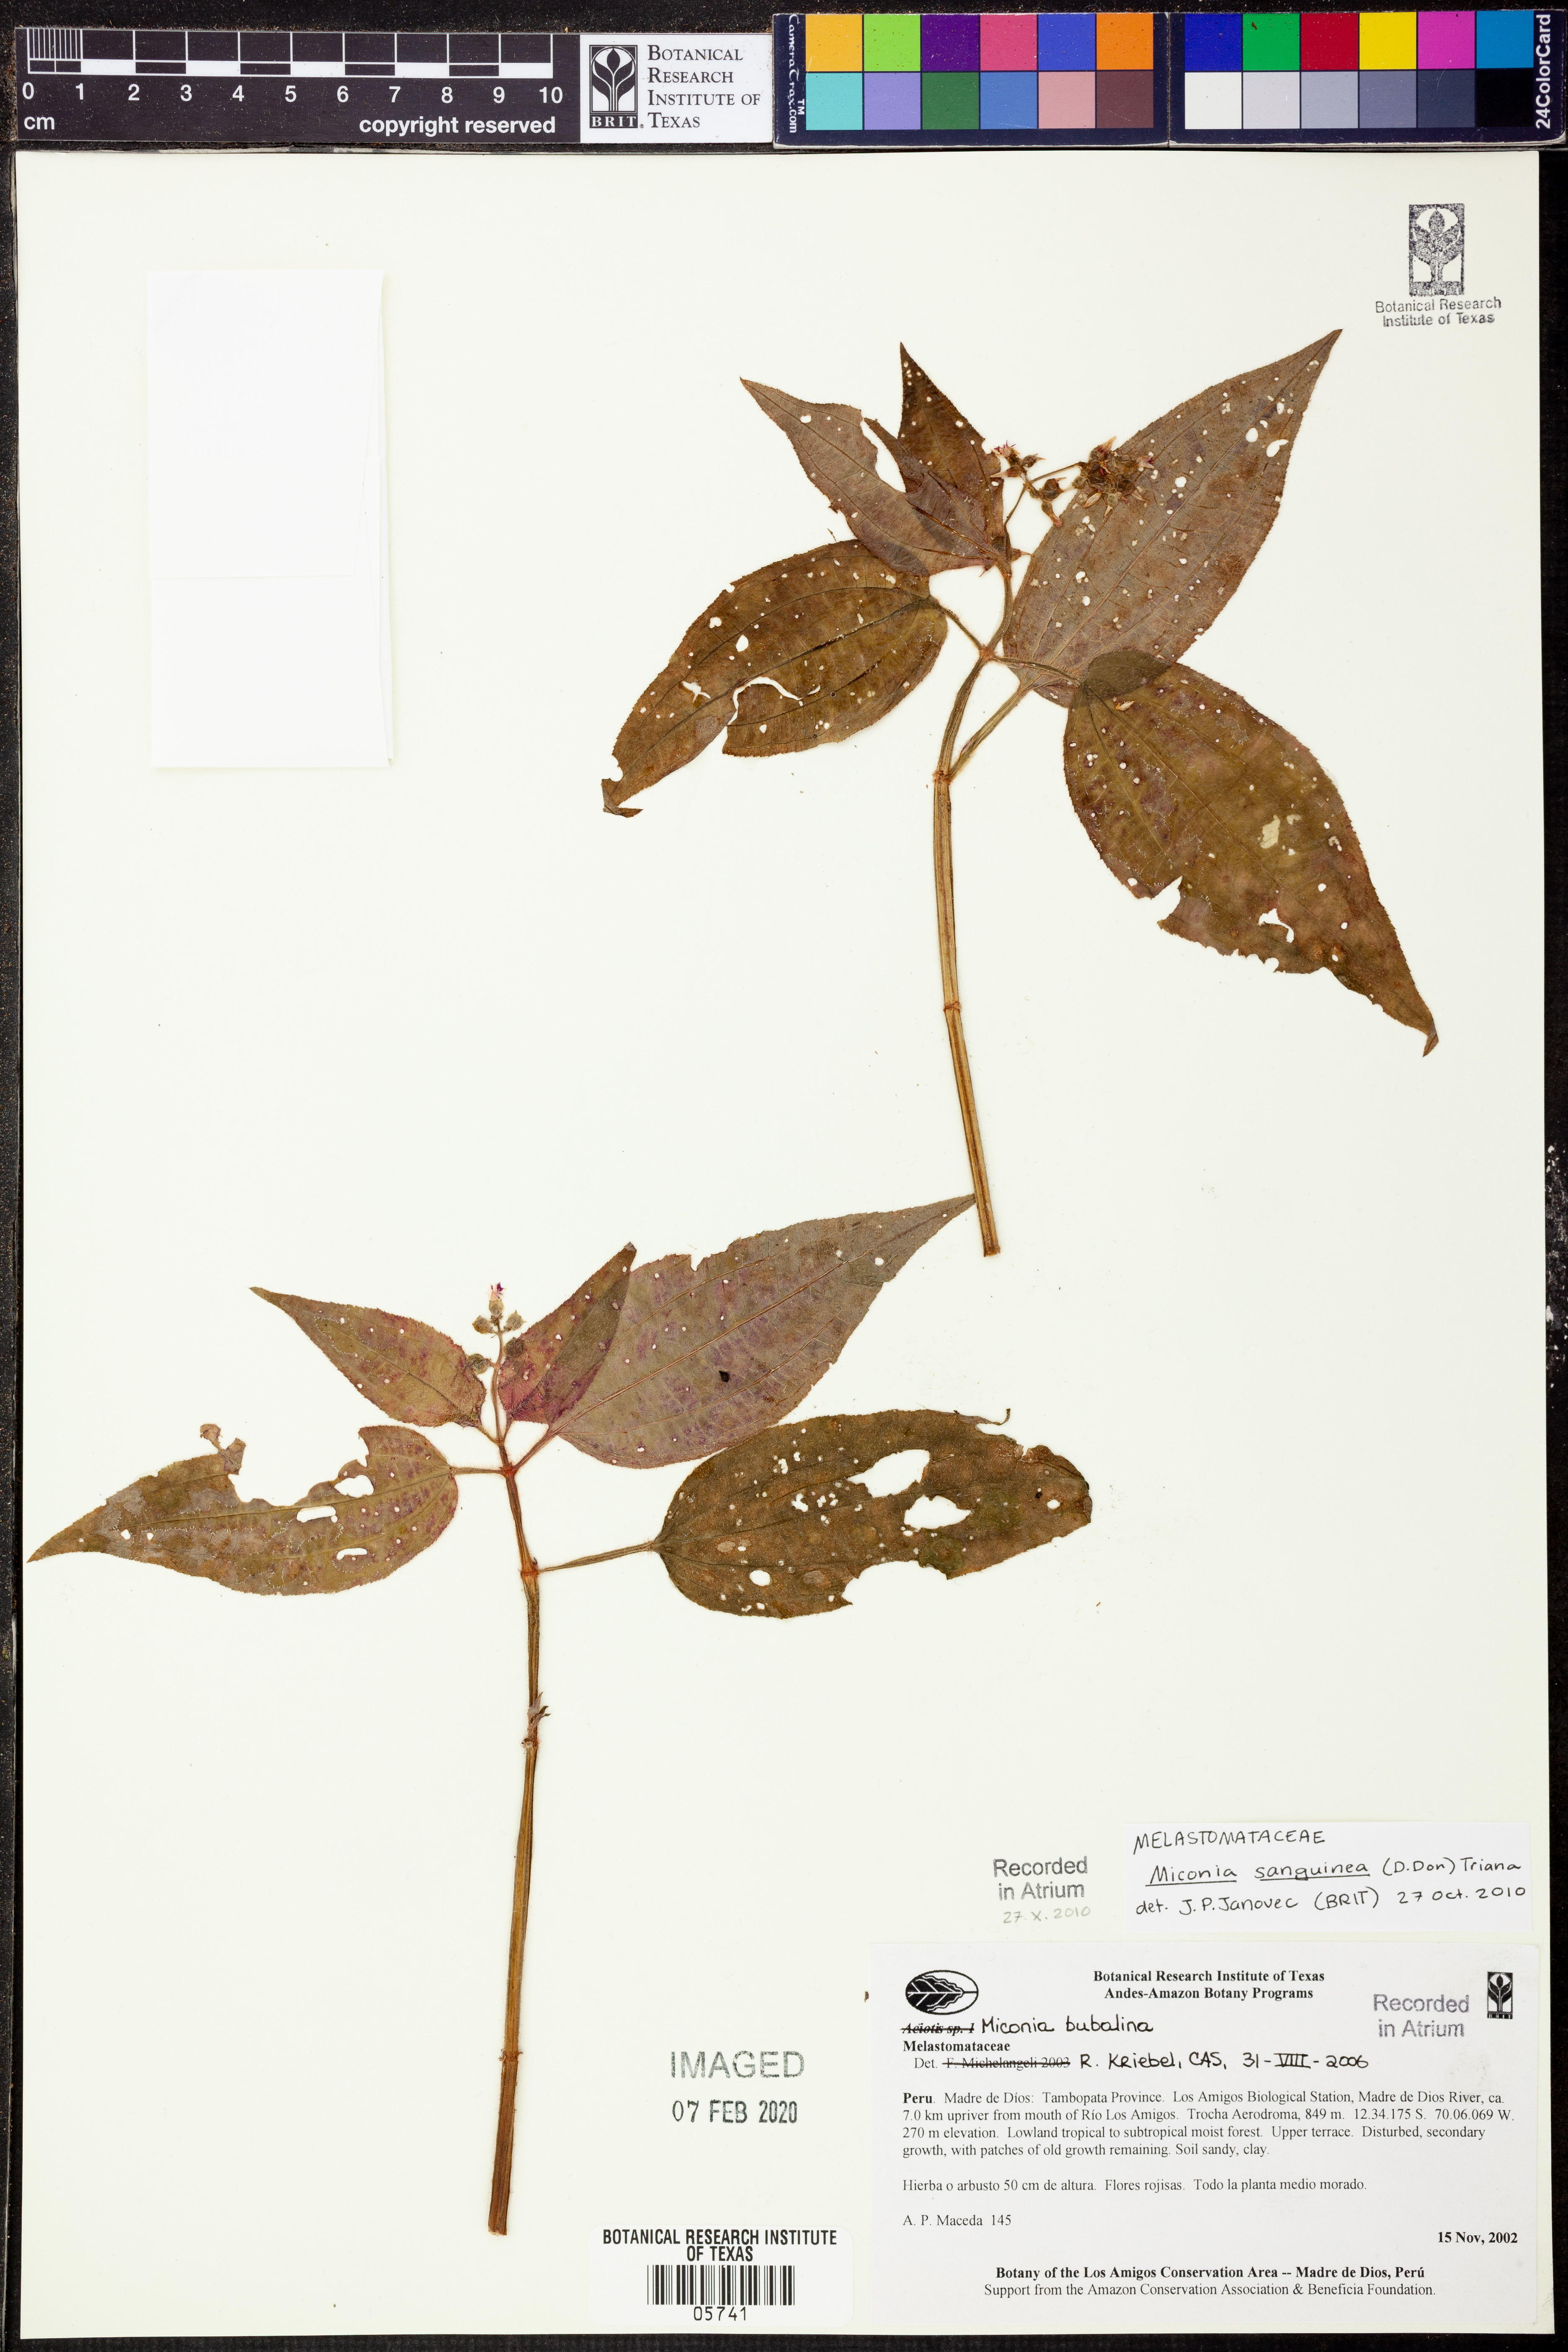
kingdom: Plantae
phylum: Tracheophyta
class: Magnoliopsida
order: Myrtales
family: Melastomataceae
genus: Miconia
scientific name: Miconia sanguinea
